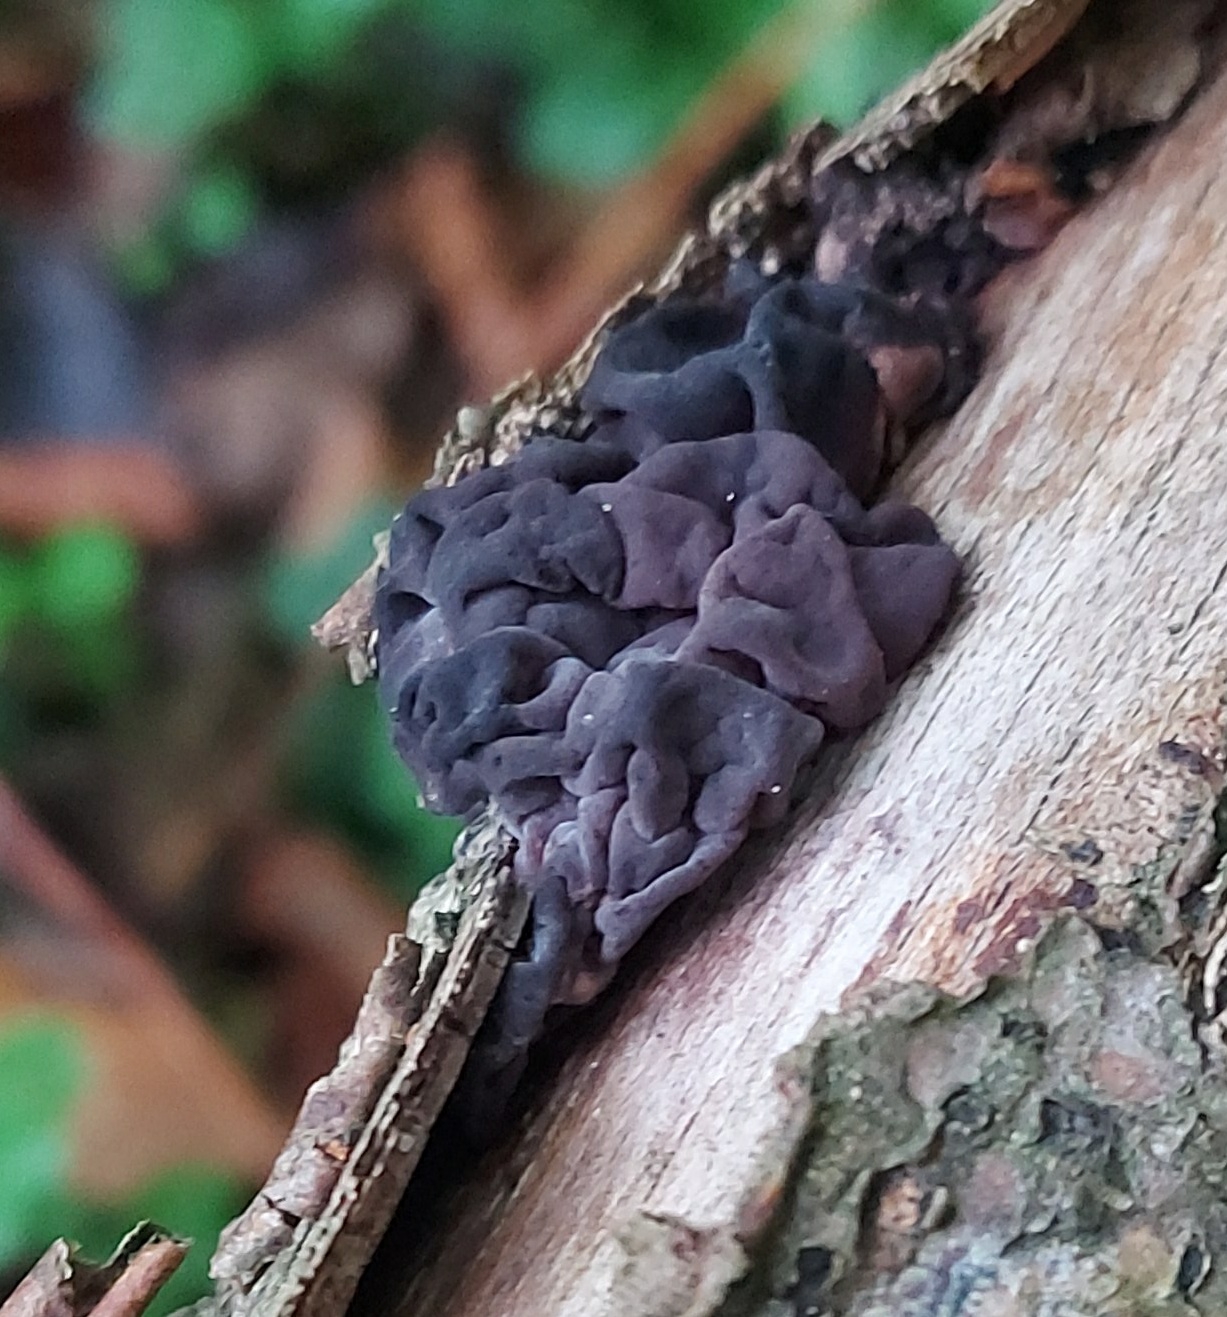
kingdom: Fungi
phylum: Basidiomycota
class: Agaricomycetes
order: Auriculariales
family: Auriculariaceae
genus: Exidia
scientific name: Exidia nigricans
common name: almindelig bævretop
